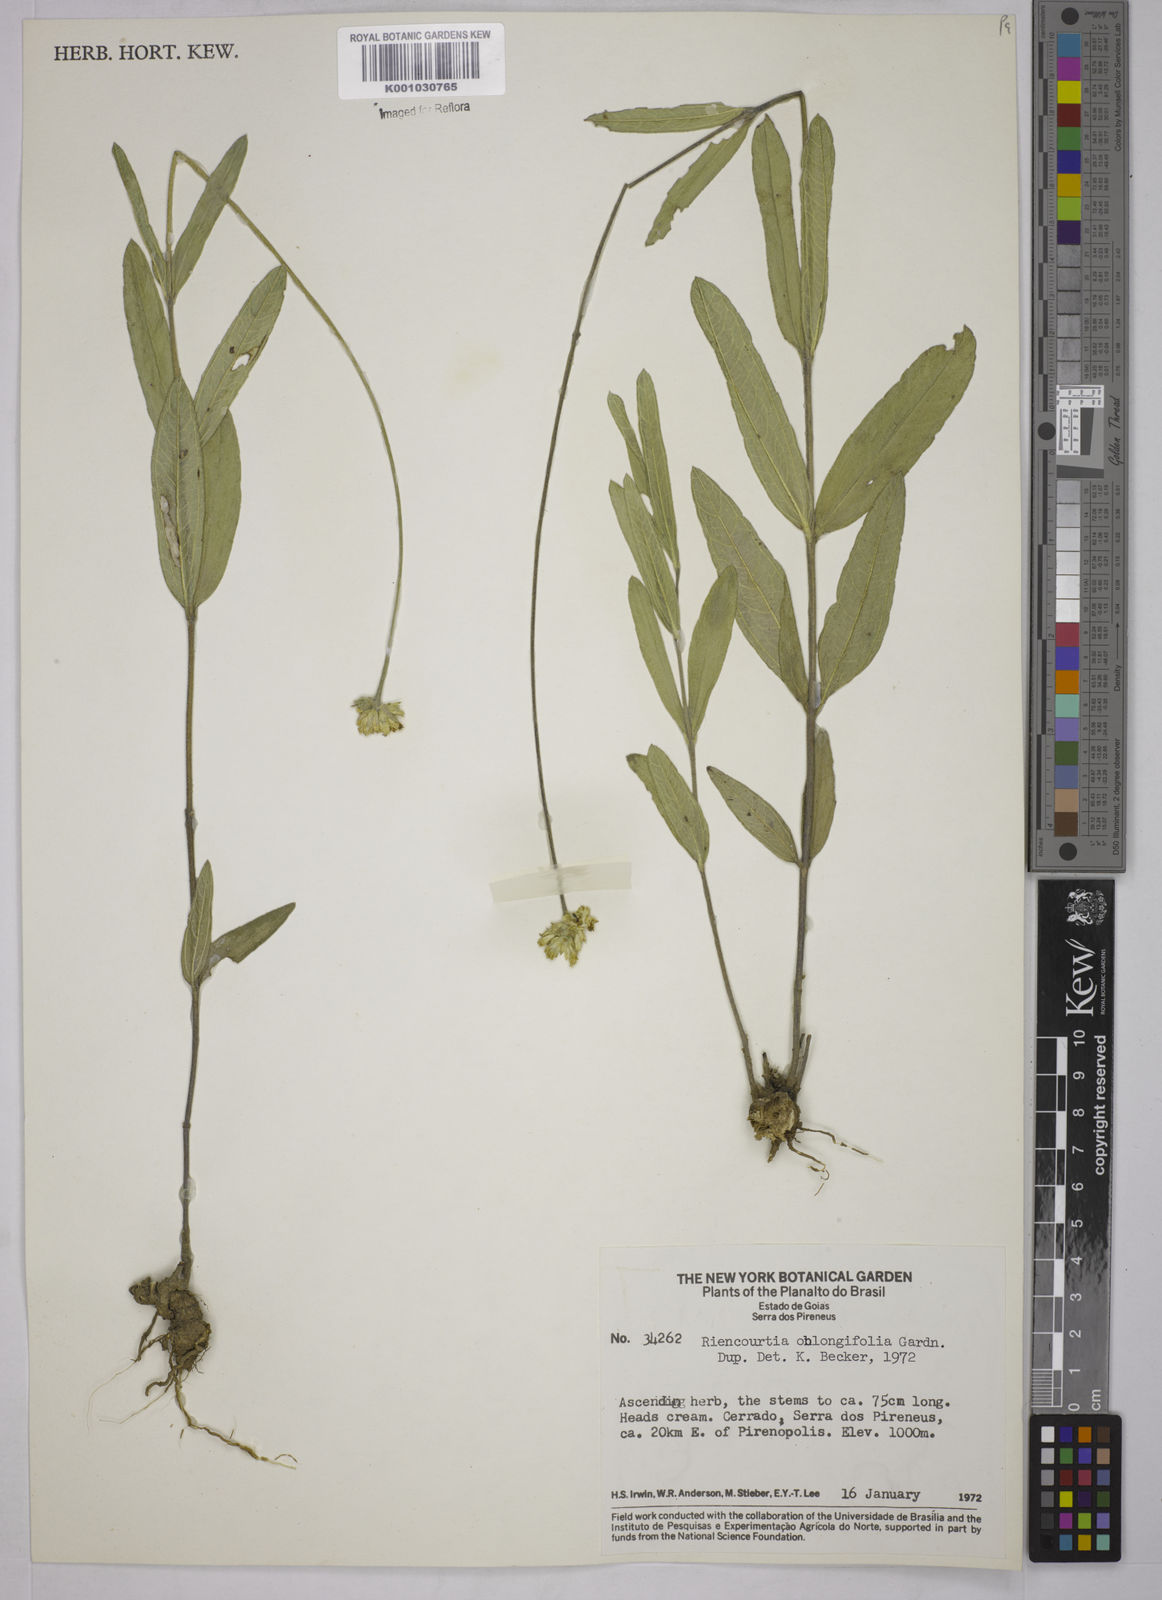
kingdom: Plantae
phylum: Tracheophyta
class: Magnoliopsida
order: Asterales
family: Asteraceae
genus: Riencourtia
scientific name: Riencourtia oblongifolia
